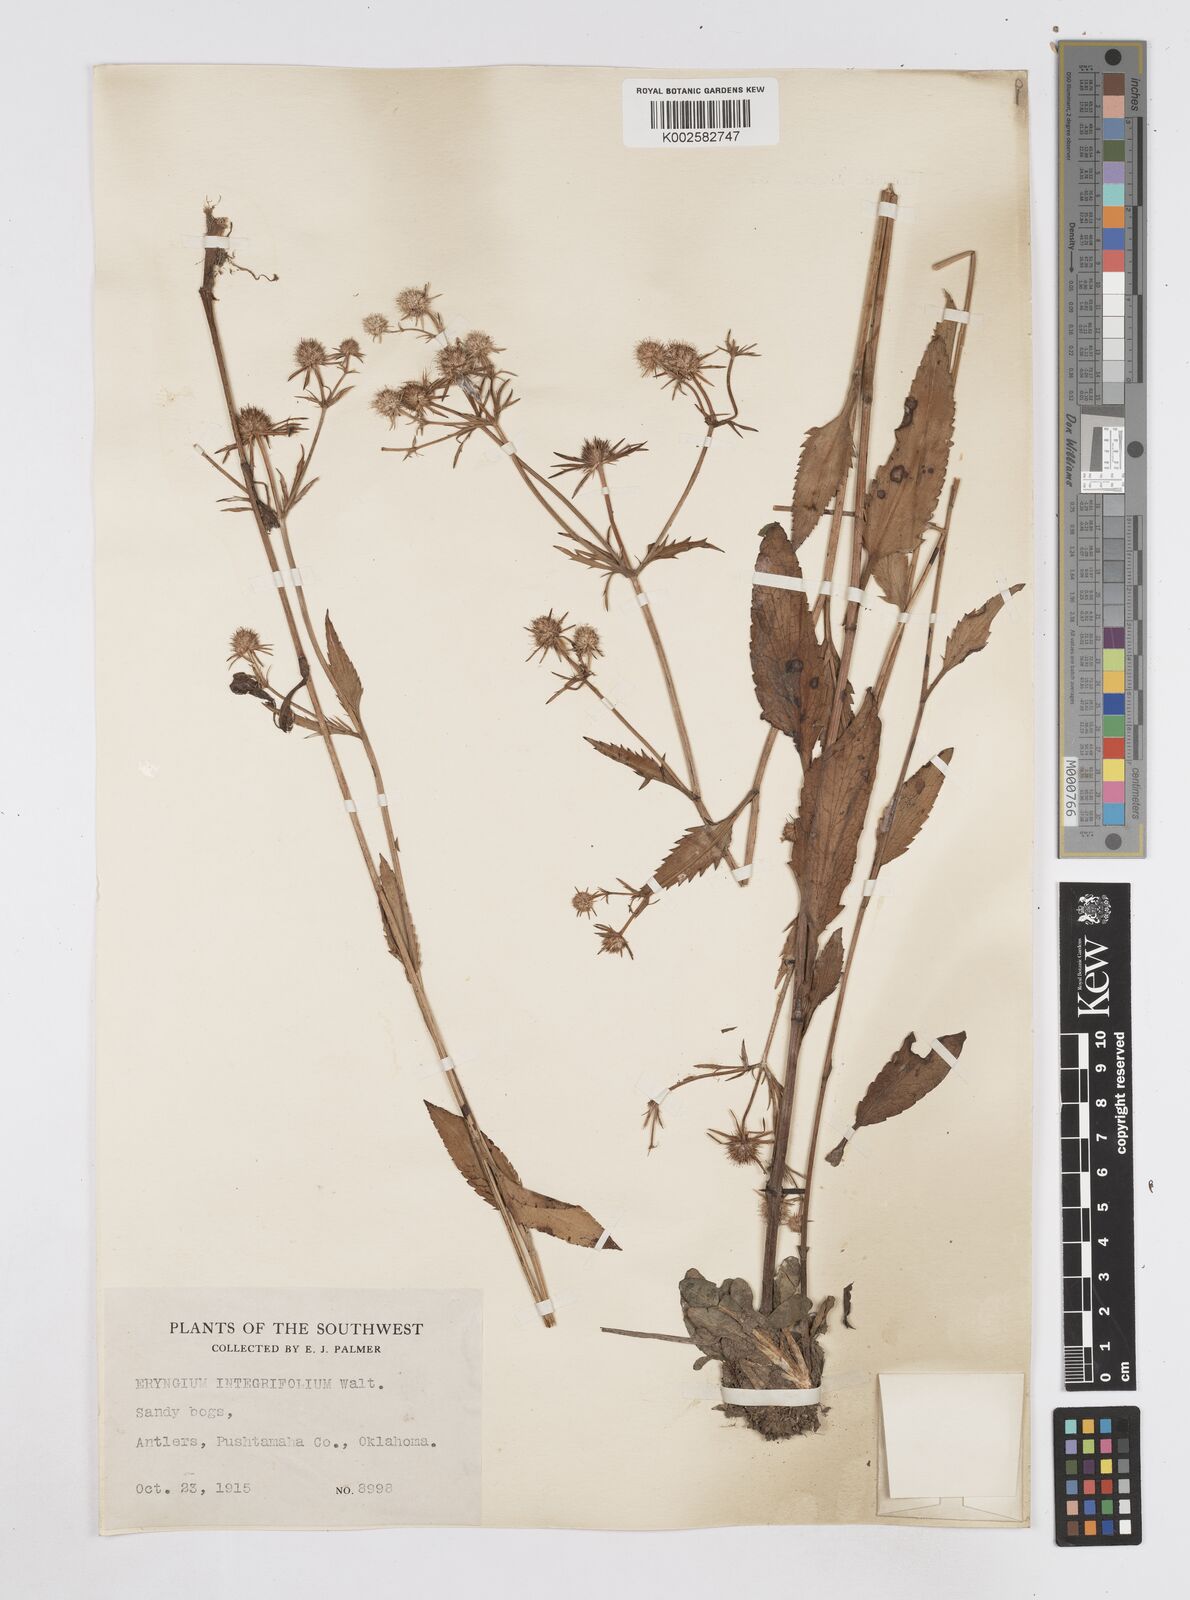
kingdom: Plantae
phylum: Tracheophyta
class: Magnoliopsida
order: Apiales
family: Apiaceae
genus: Eryngium
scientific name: Eryngium integrifolium
